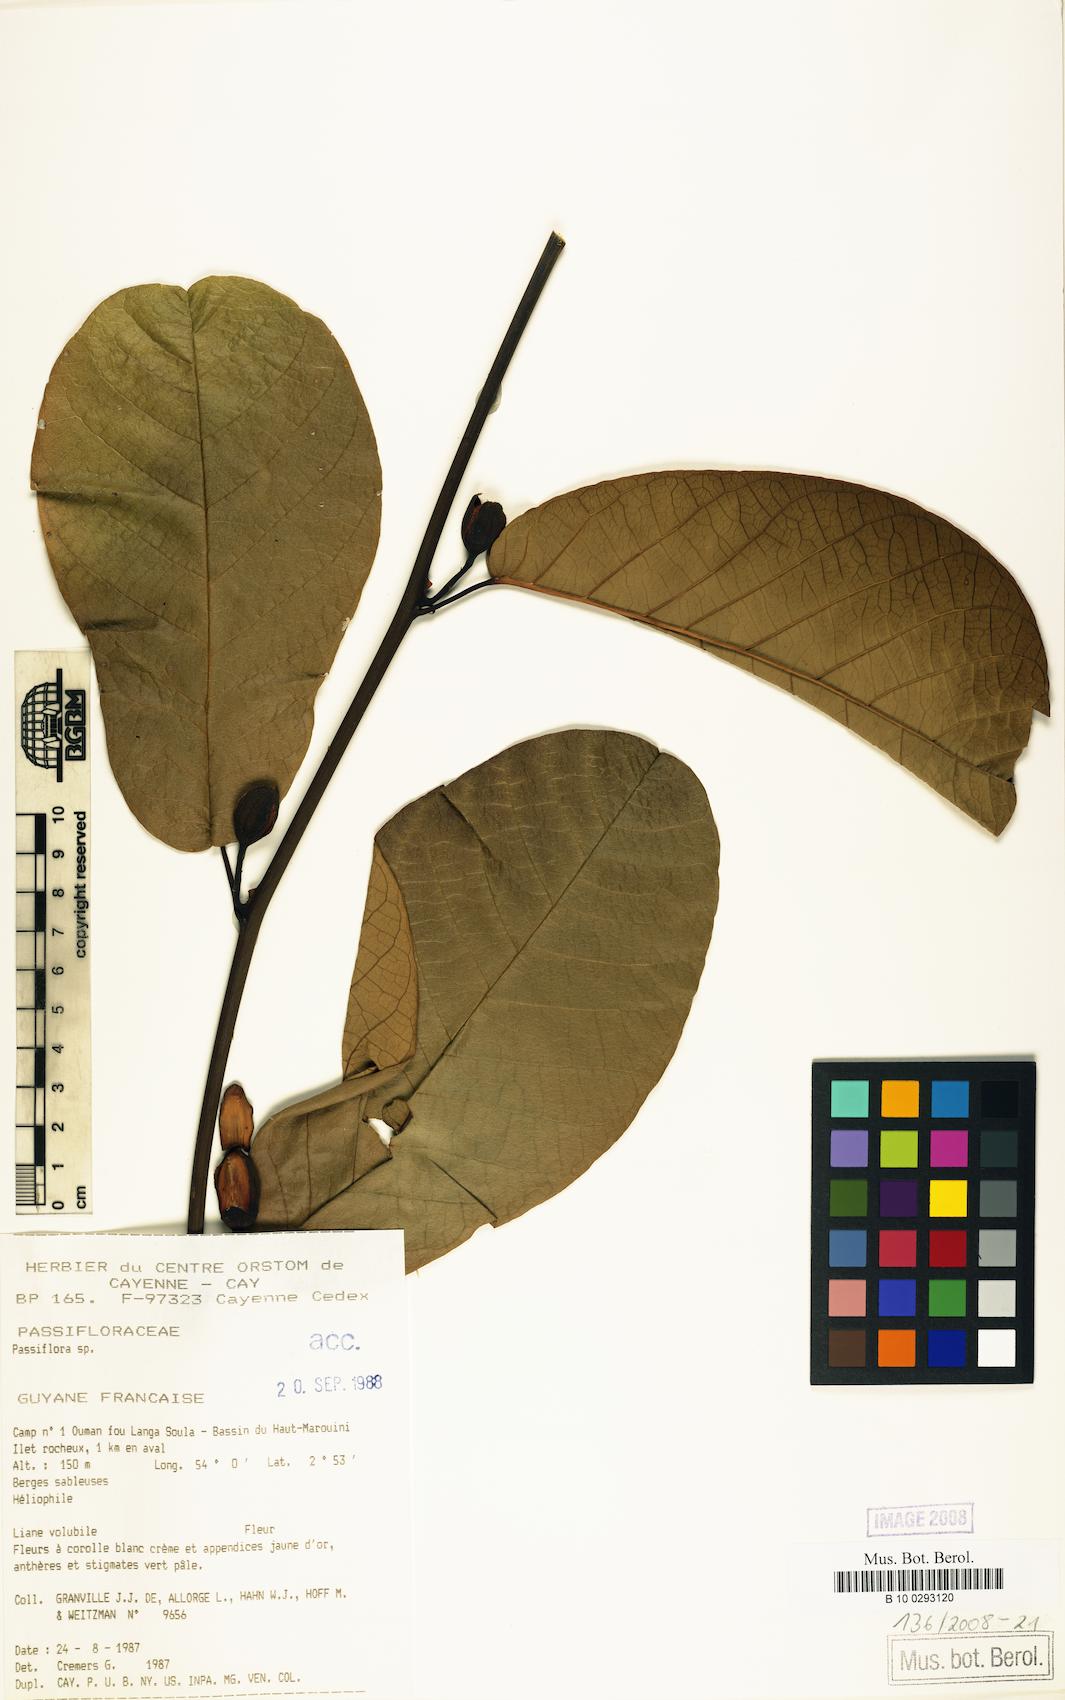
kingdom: Plantae
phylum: Tracheophyta
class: Magnoliopsida
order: Malpighiales
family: Passifloraceae
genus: Passiflora
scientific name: Passiflora
